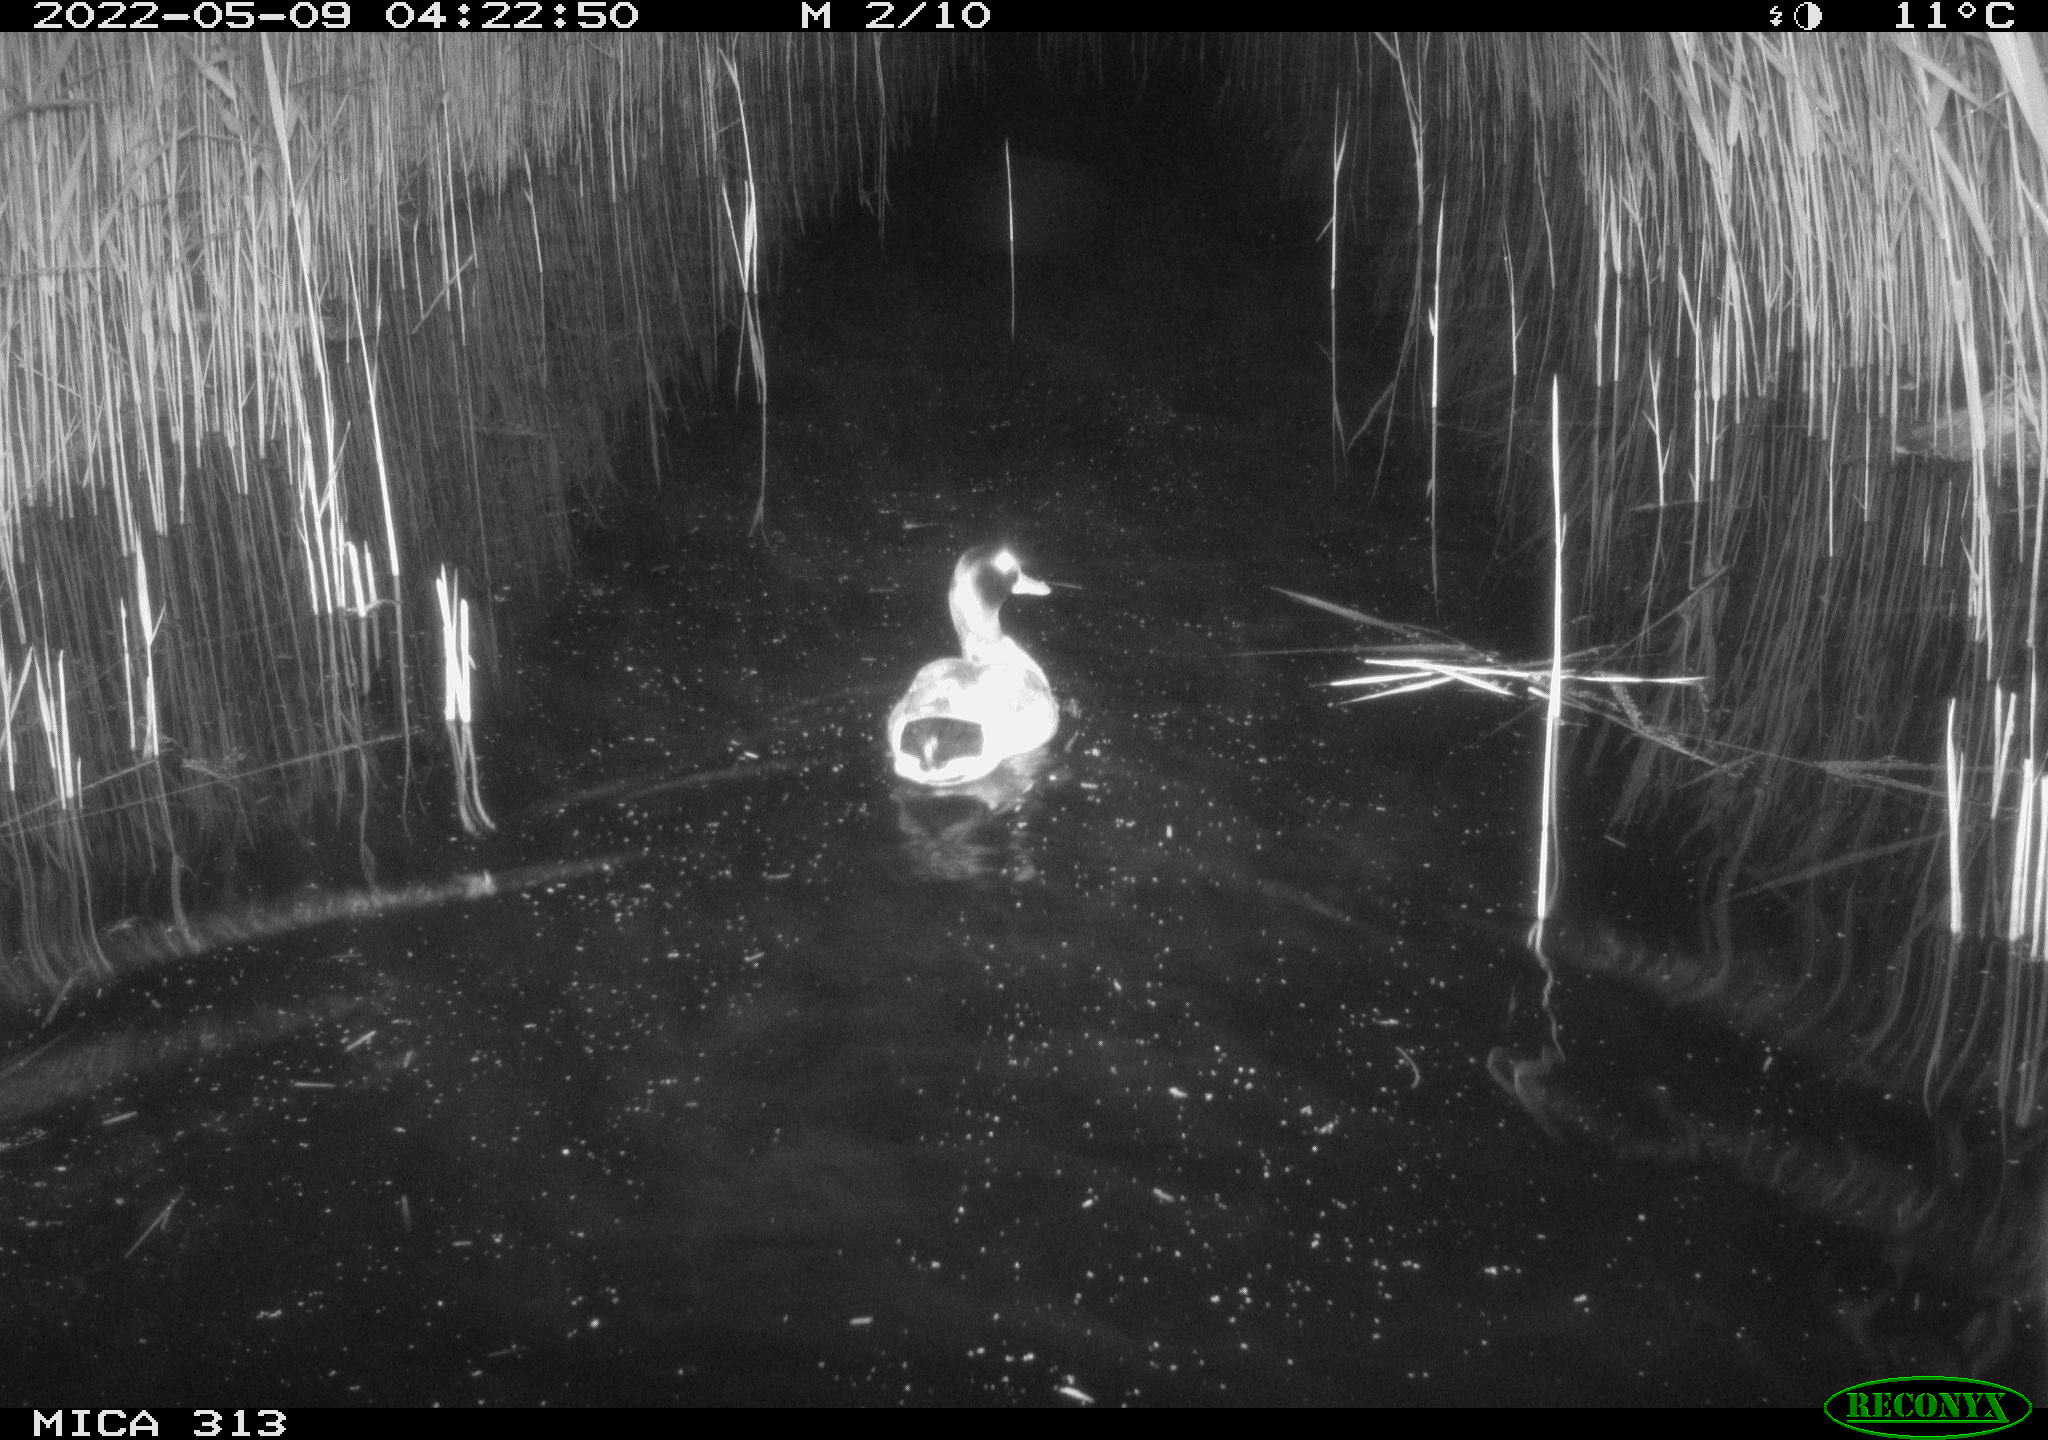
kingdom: Animalia
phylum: Chordata
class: Aves
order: Anseriformes
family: Anatidae
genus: Mareca
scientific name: Mareca strepera
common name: Gadwall
